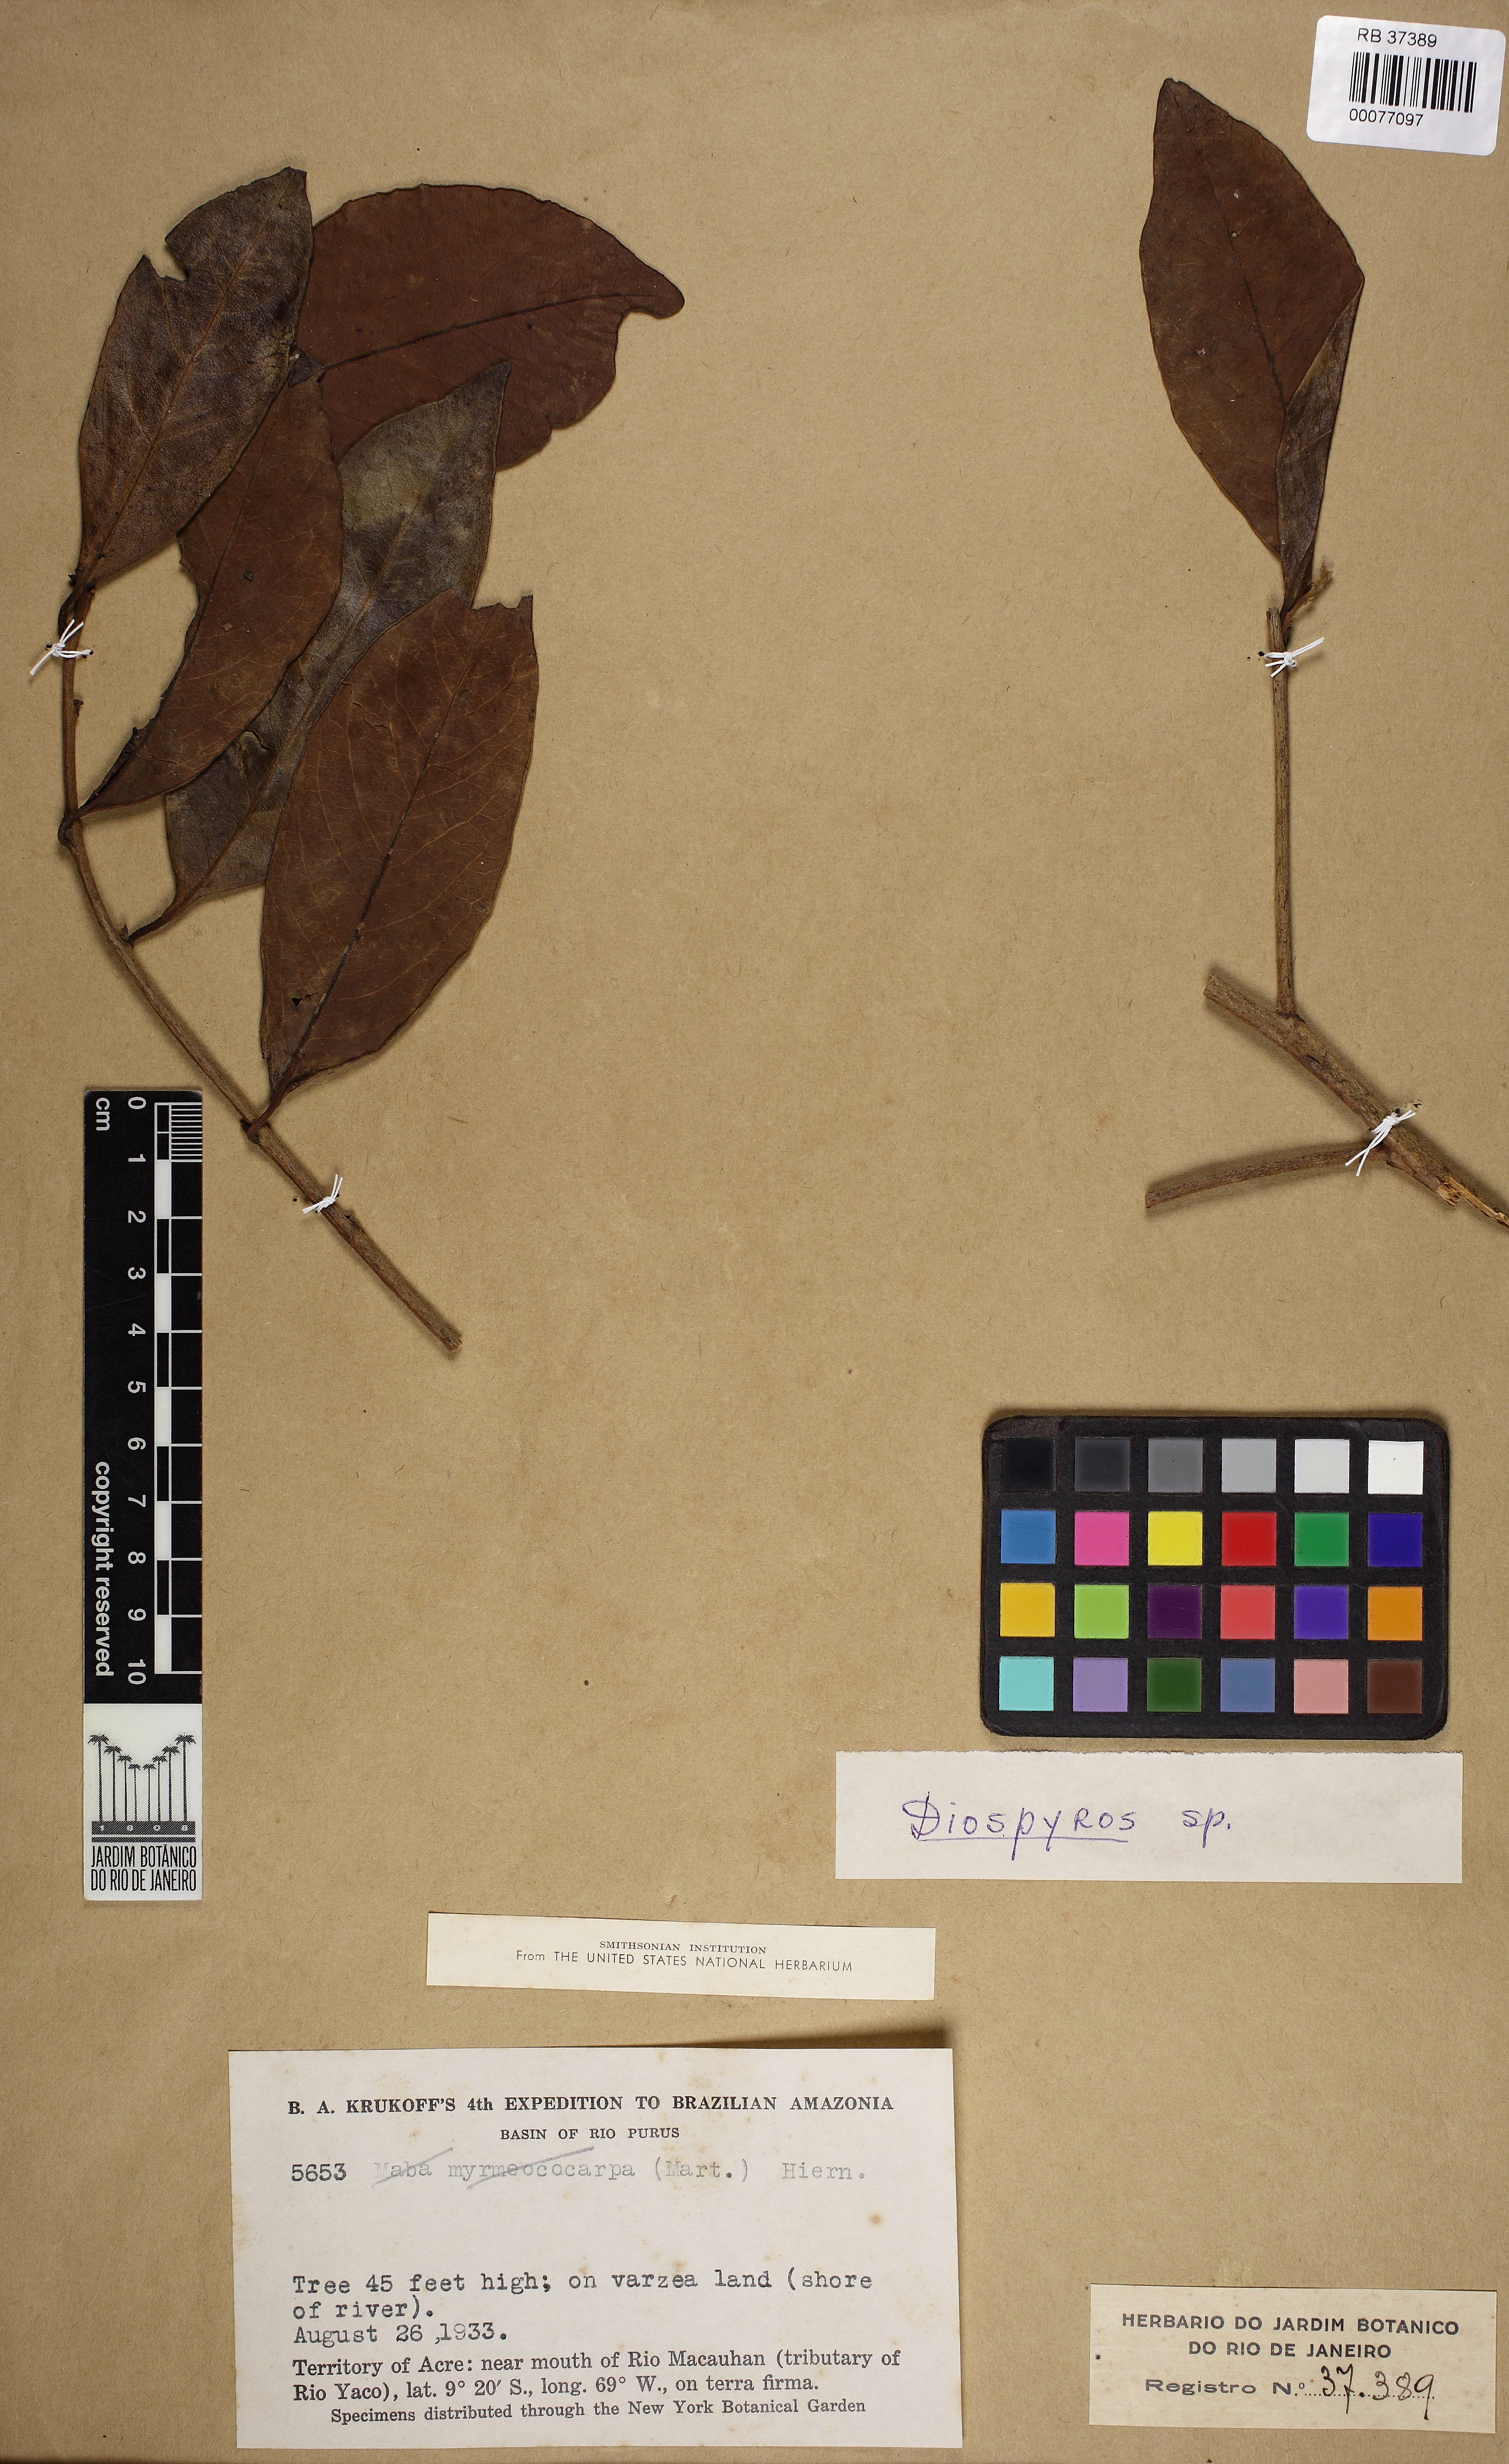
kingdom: Plantae
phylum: Tracheophyta
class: Magnoliopsida
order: Ericales
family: Ebenaceae
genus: Diospyros
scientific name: Diospyros
